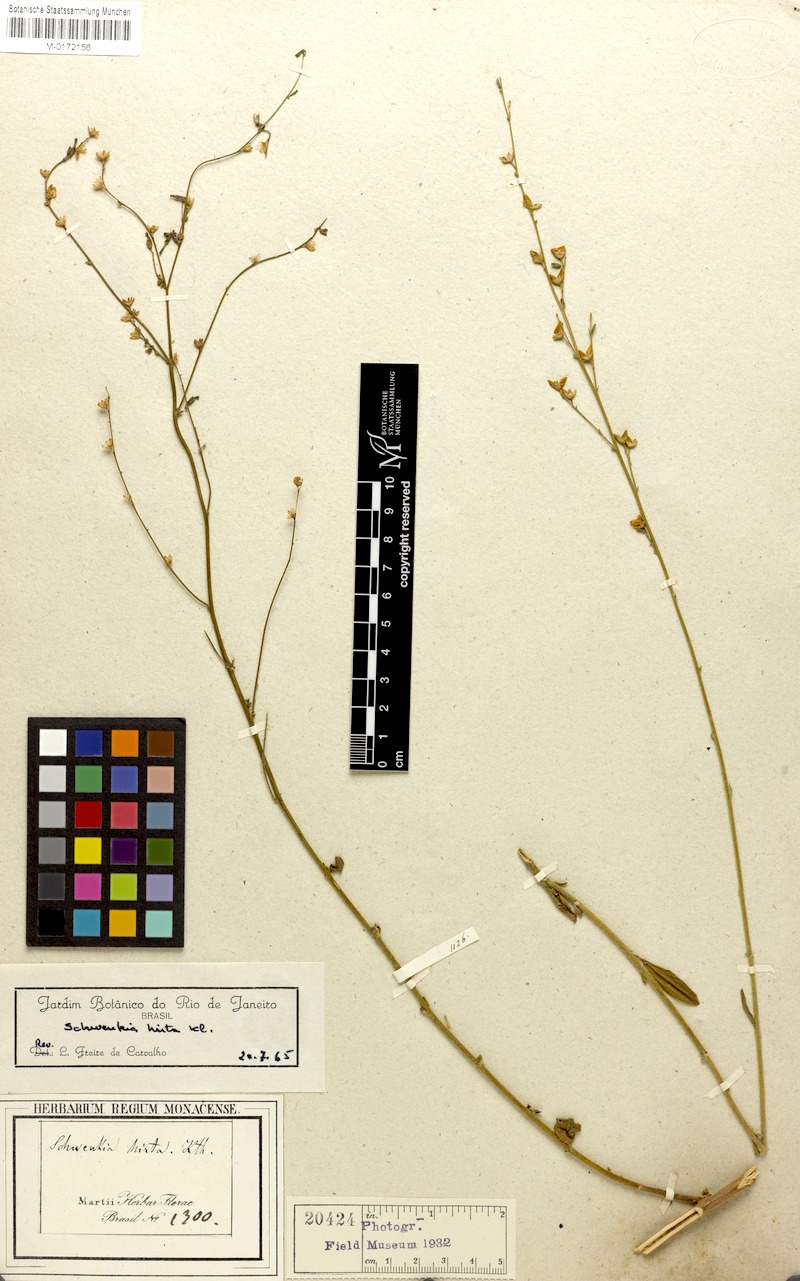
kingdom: Plantae
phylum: Tracheophyta
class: Magnoliopsida
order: Solanales
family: Solanaceae
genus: Schwenckia
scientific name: Schwenckia americana
